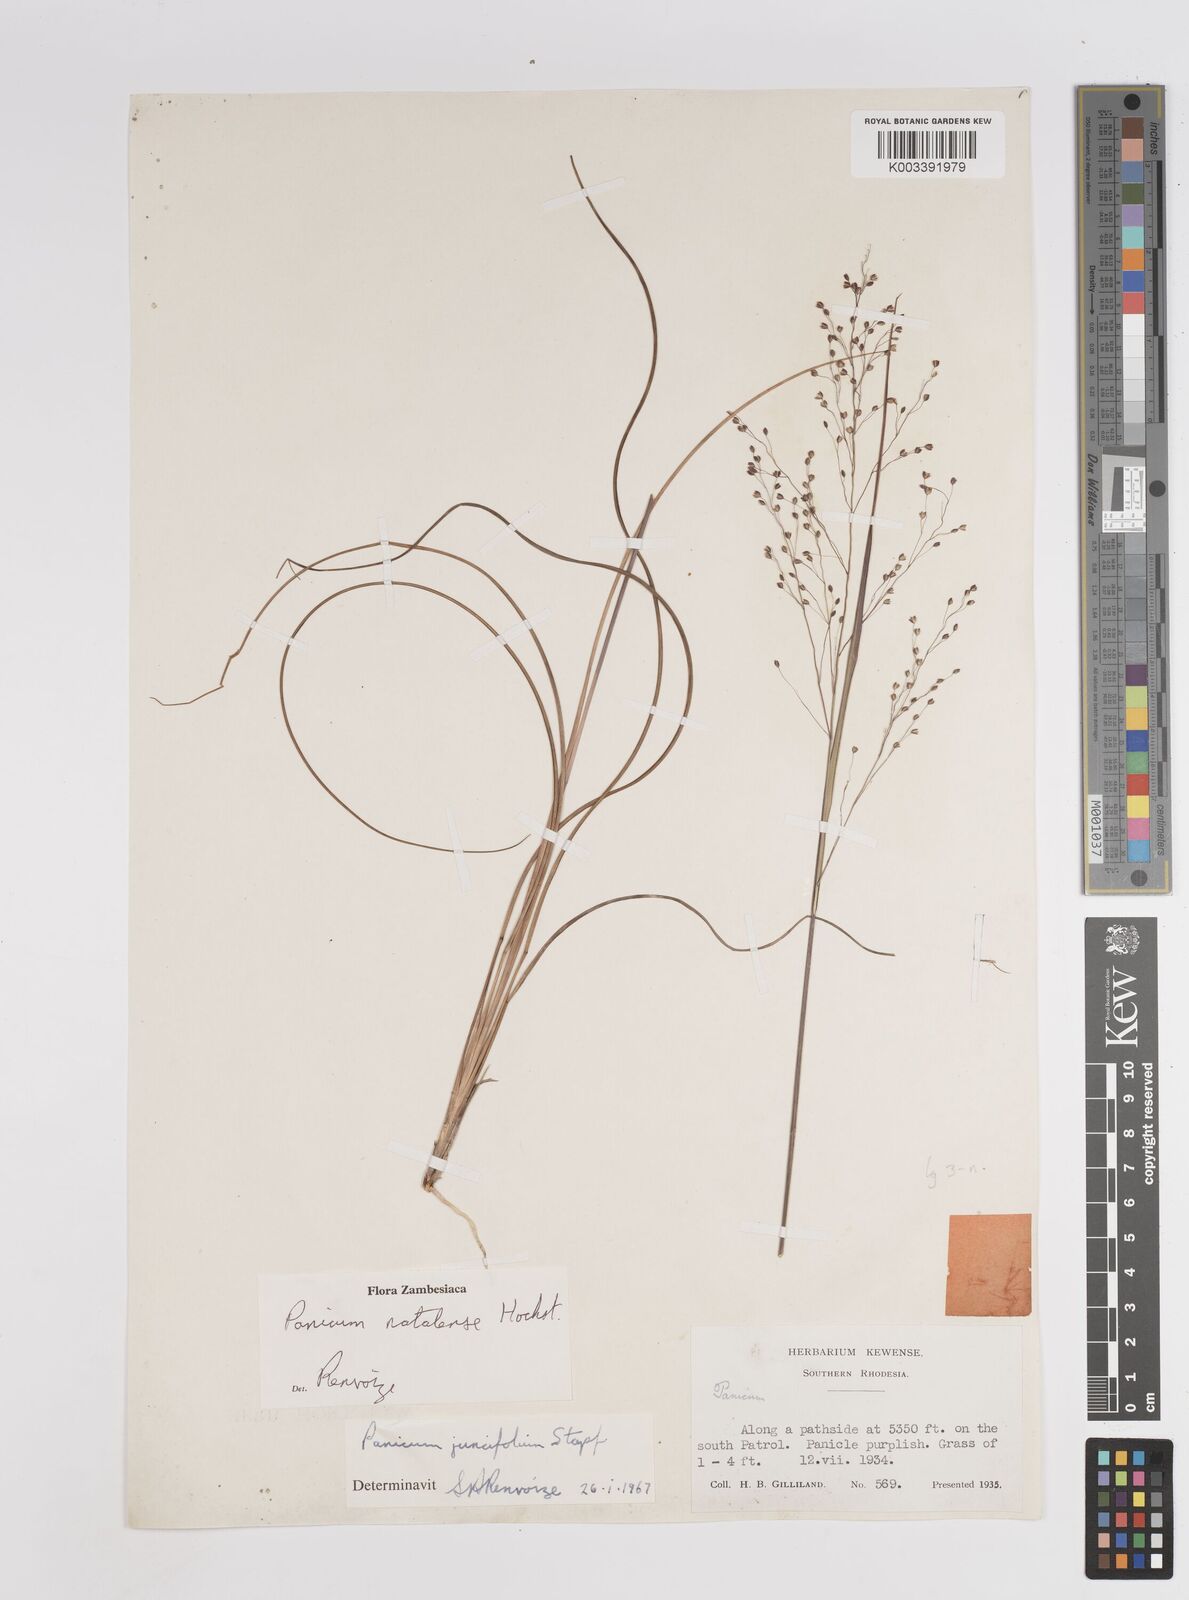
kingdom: Plantae
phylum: Tracheophyta
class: Liliopsida
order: Poales
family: Poaceae
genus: Trichanthecium
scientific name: Trichanthecium natalense
